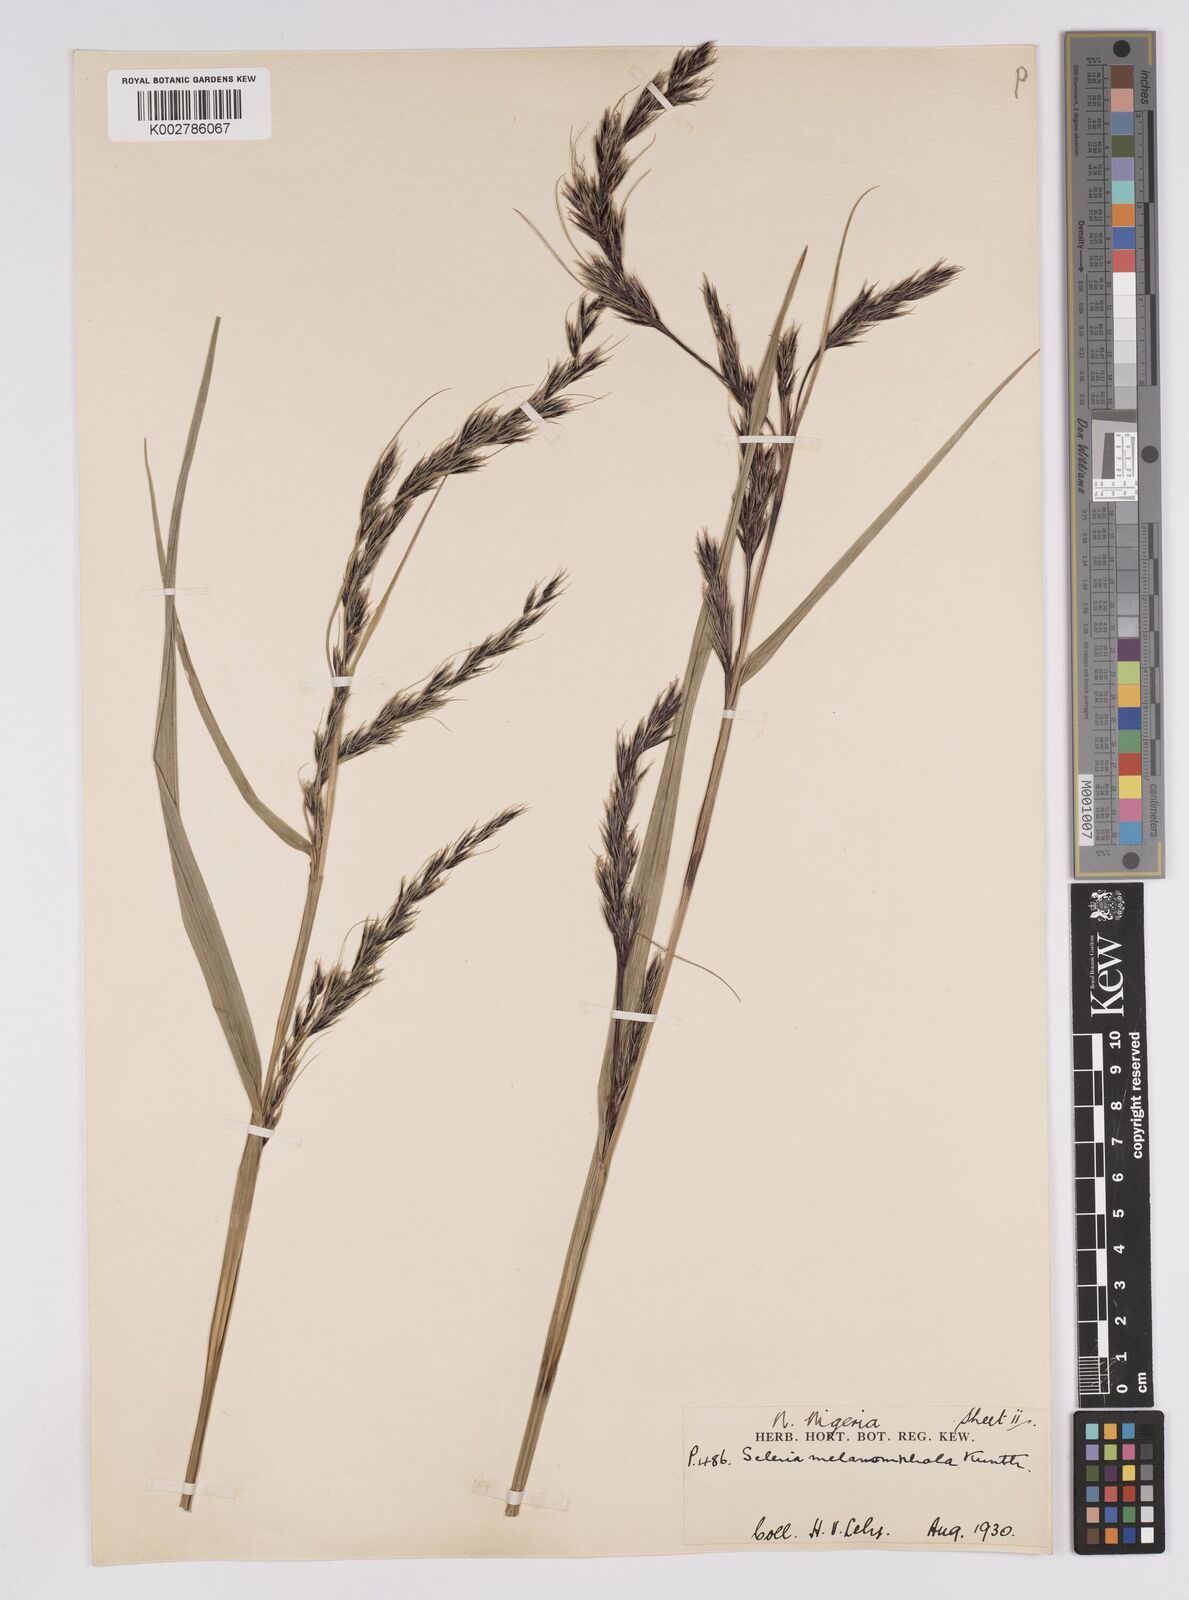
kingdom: Plantae
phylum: Tracheophyta
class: Liliopsida
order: Poales
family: Cyperaceae
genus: Scleria
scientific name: Scleria melanomphala
